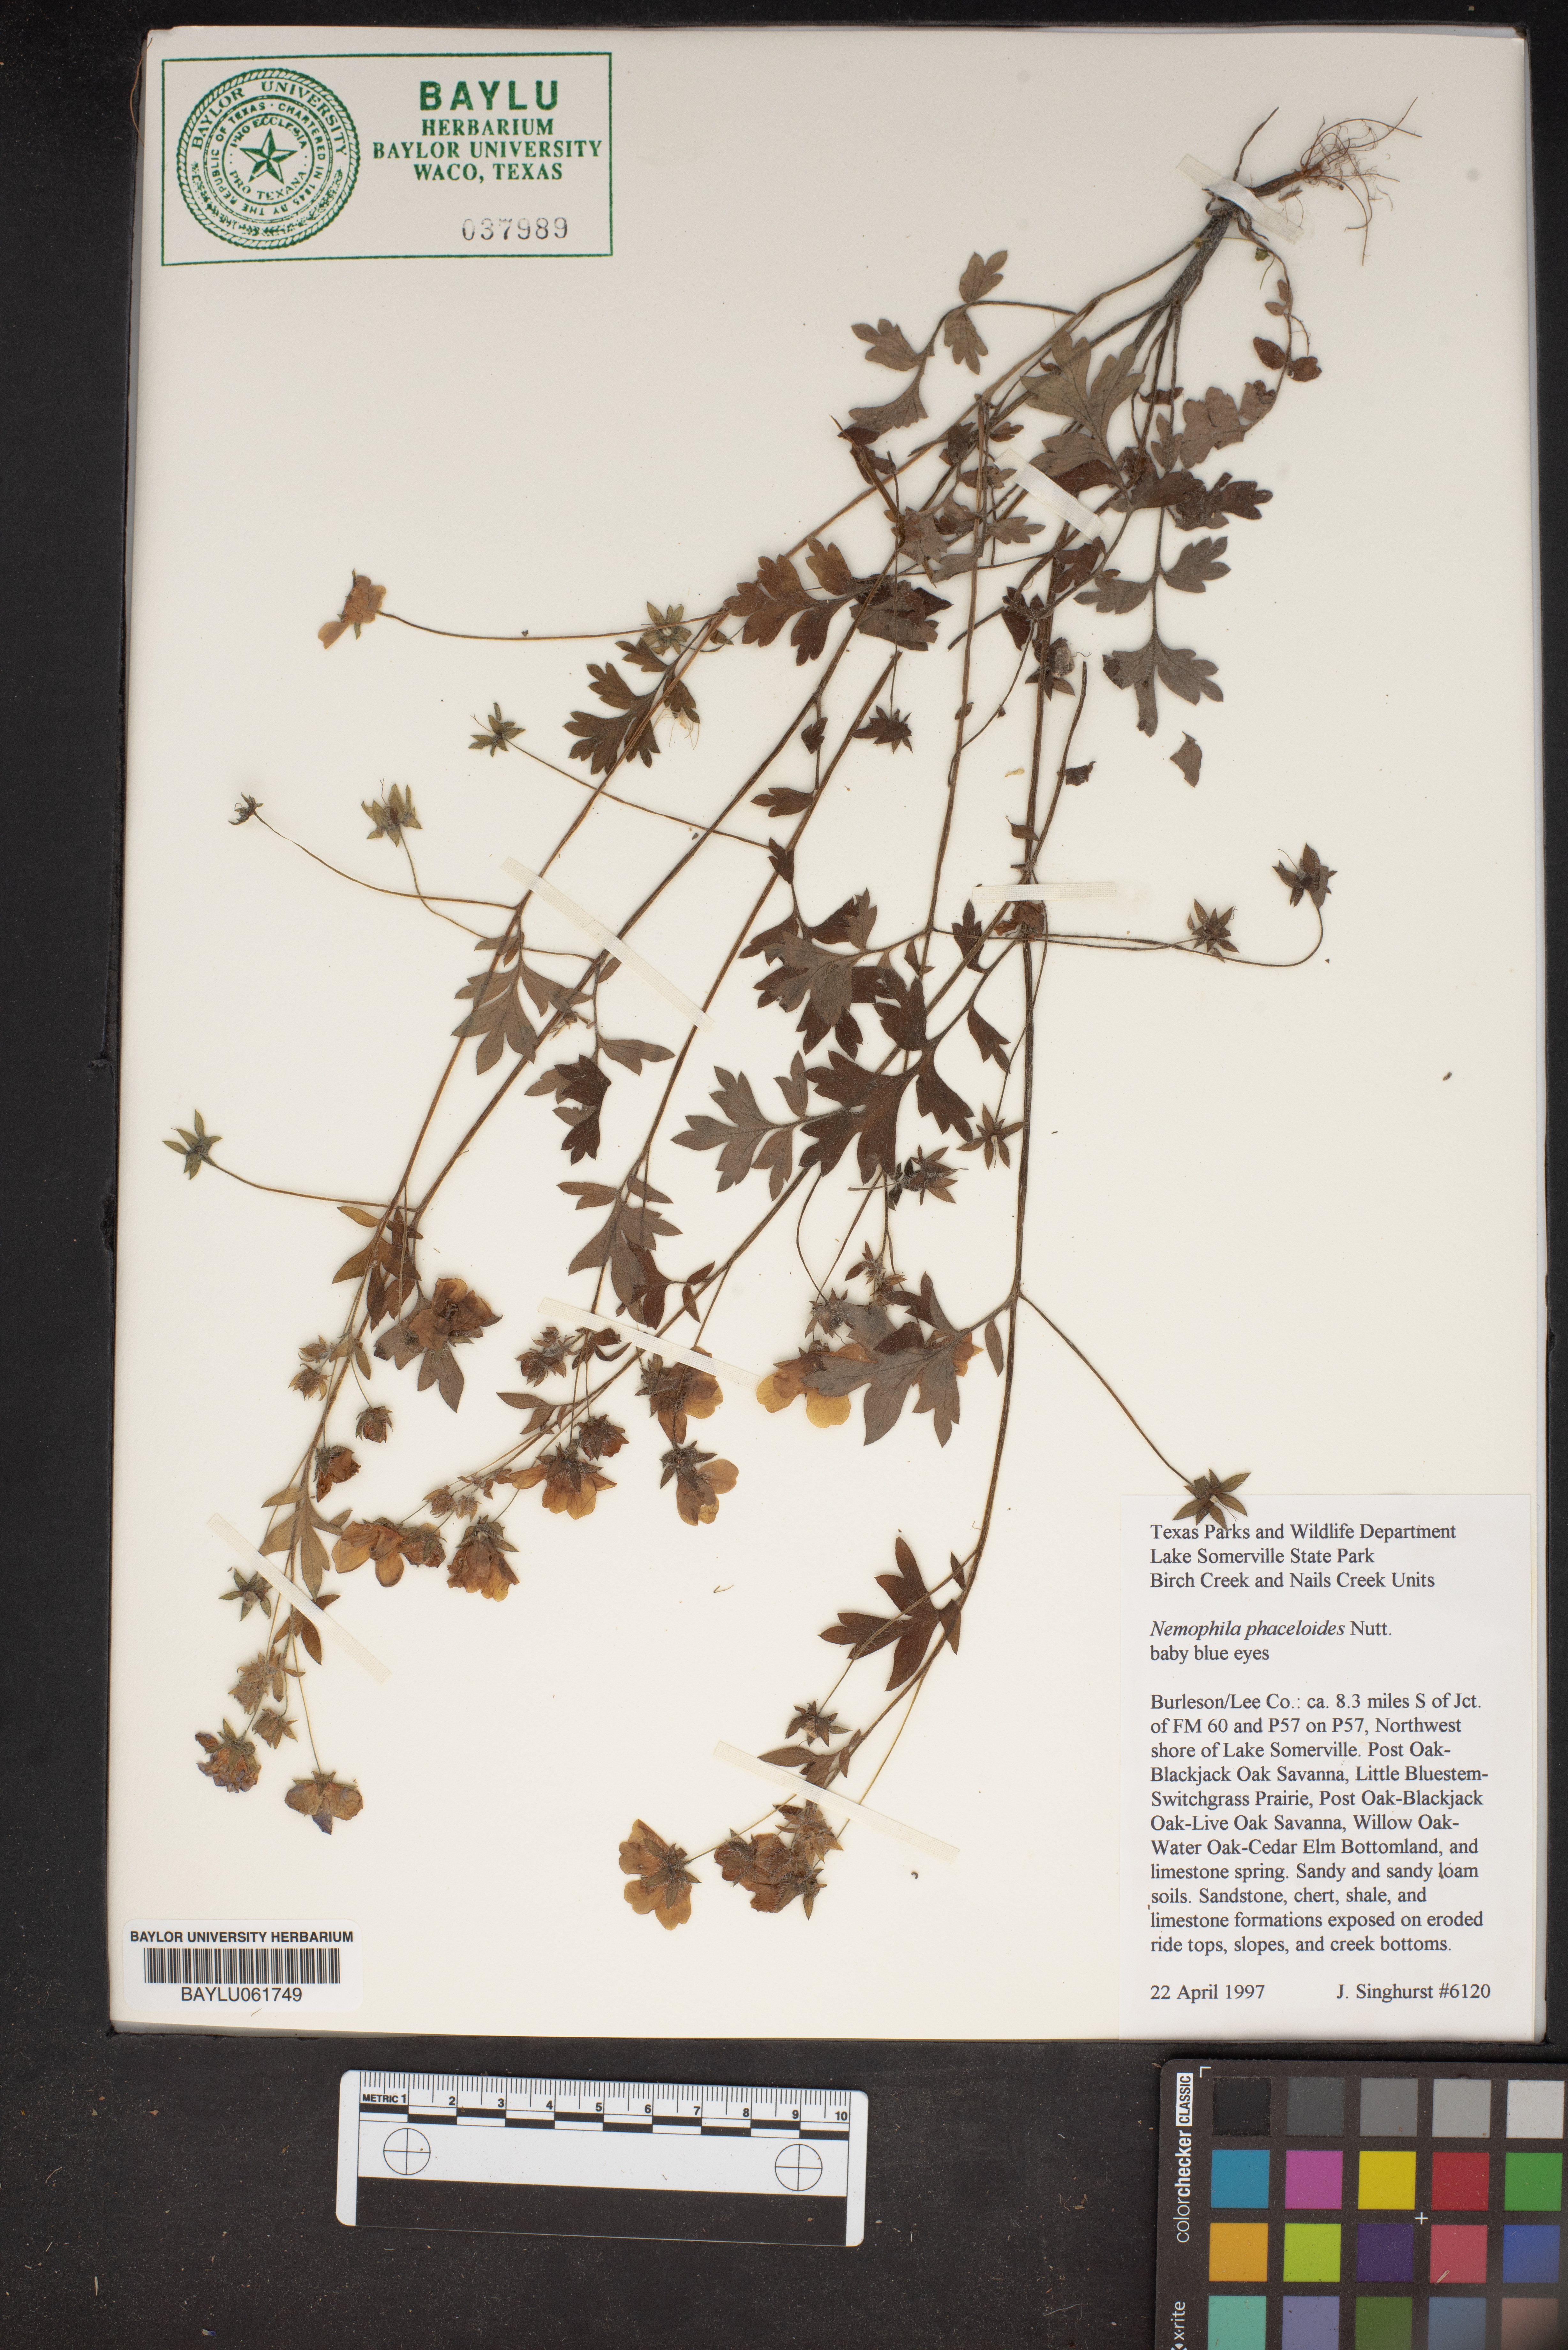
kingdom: Plantae
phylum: Tracheophyta
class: Magnoliopsida
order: Boraginales
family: Hydrophyllaceae
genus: Nemophila
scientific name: Nemophila phacelioides
